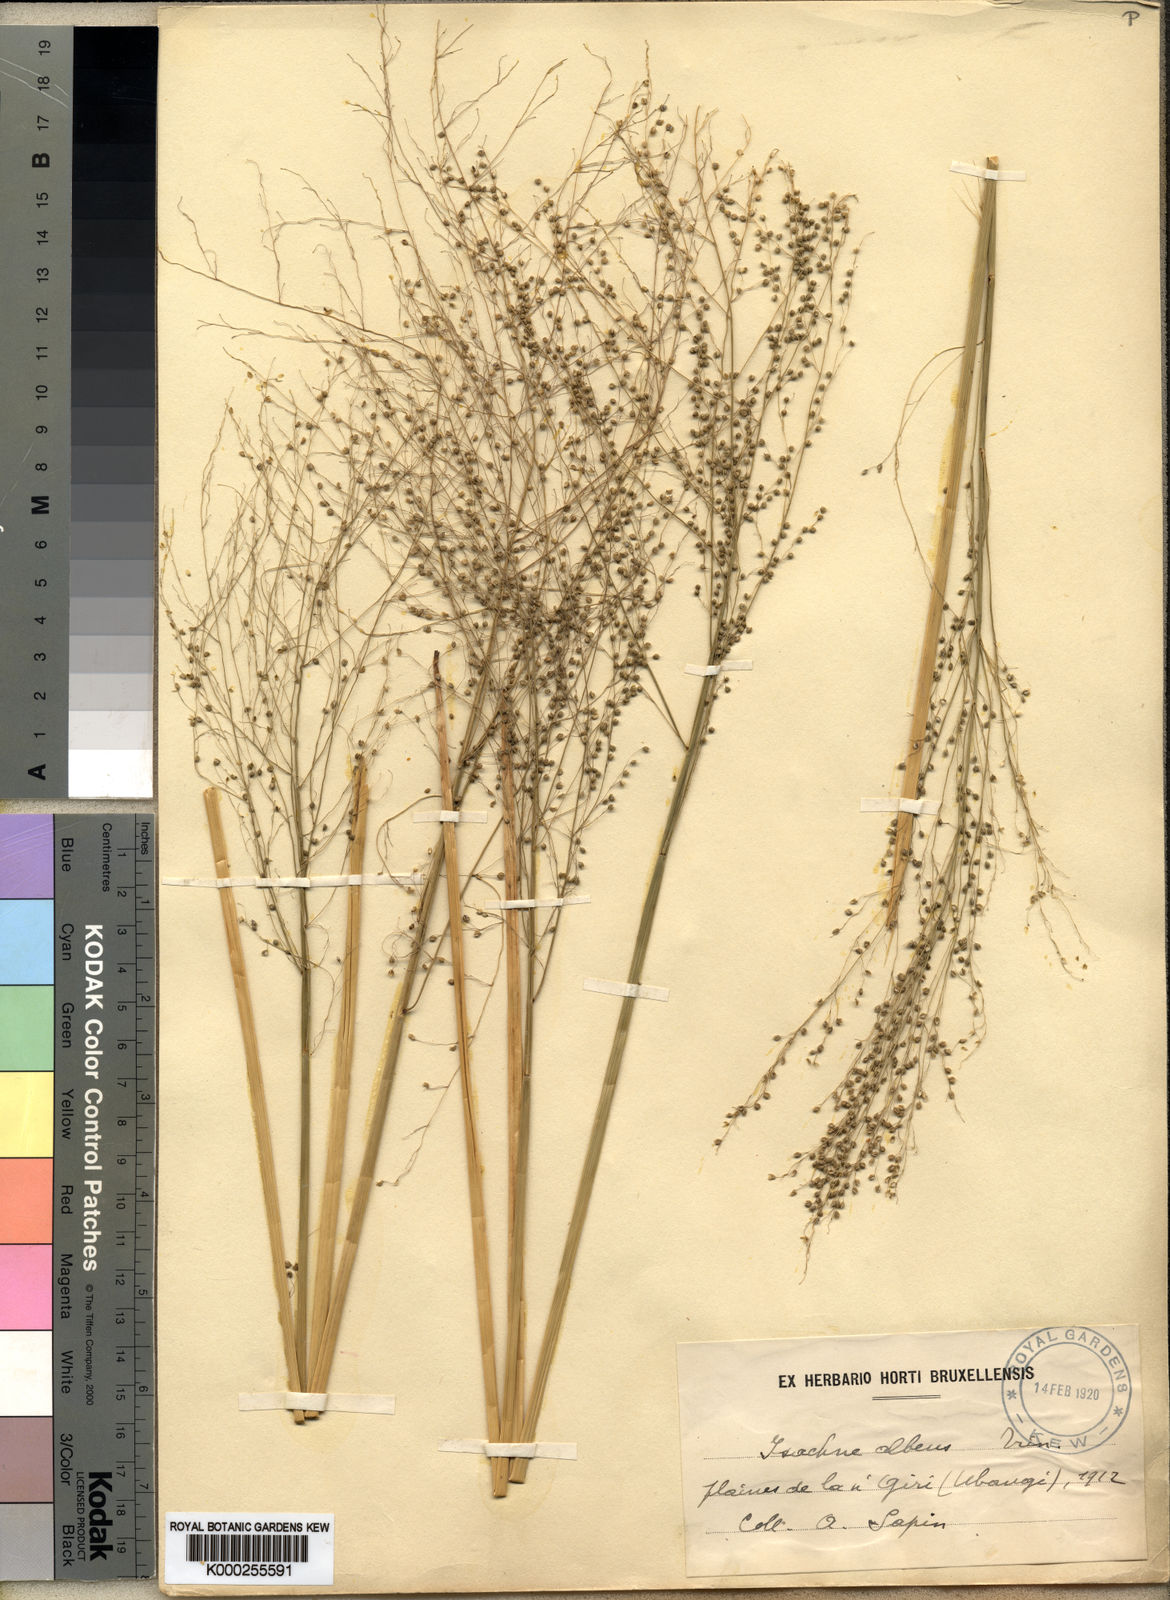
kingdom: Plantae
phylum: Tracheophyta
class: Liliopsida
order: Poales
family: Poaceae
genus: Trichanthecium
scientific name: Trichanthecium strictissimum
